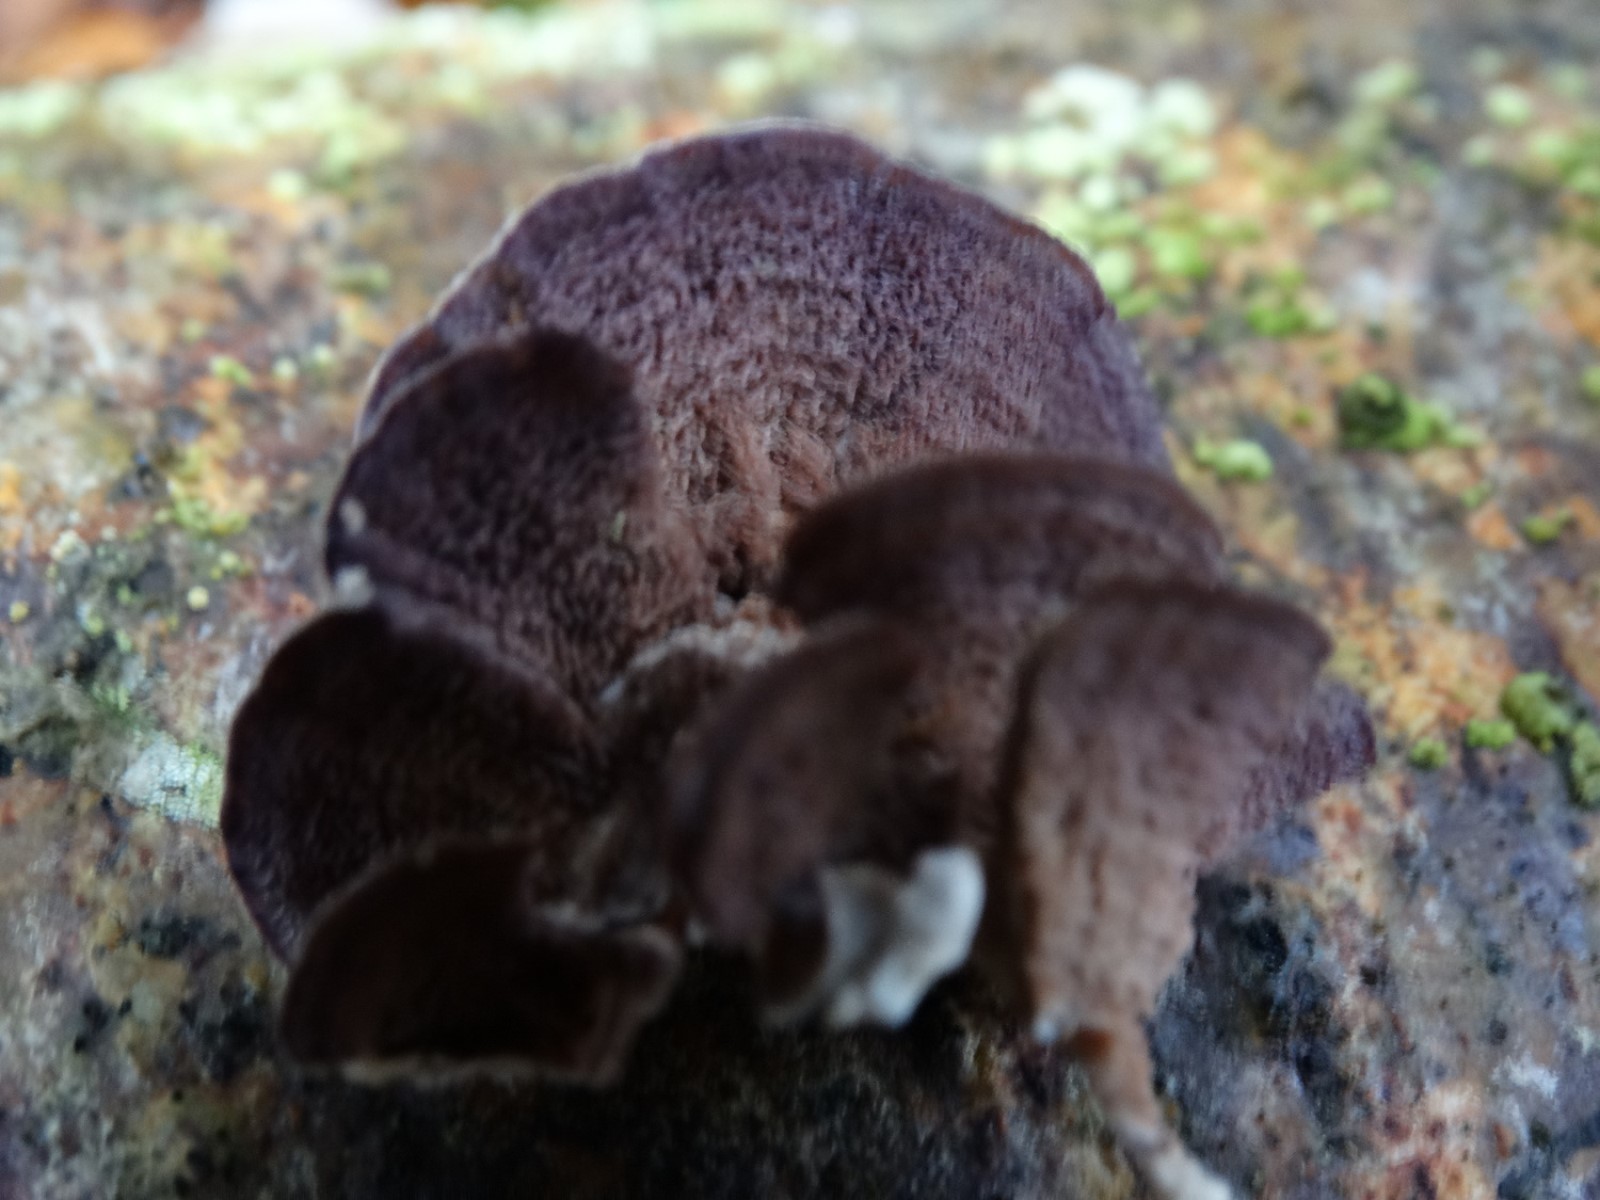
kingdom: Fungi
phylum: Basidiomycota
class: Agaricomycetes
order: Hymenochaetales
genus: Trichaptum
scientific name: Trichaptum abietinum
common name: almindelig violporesvamp
